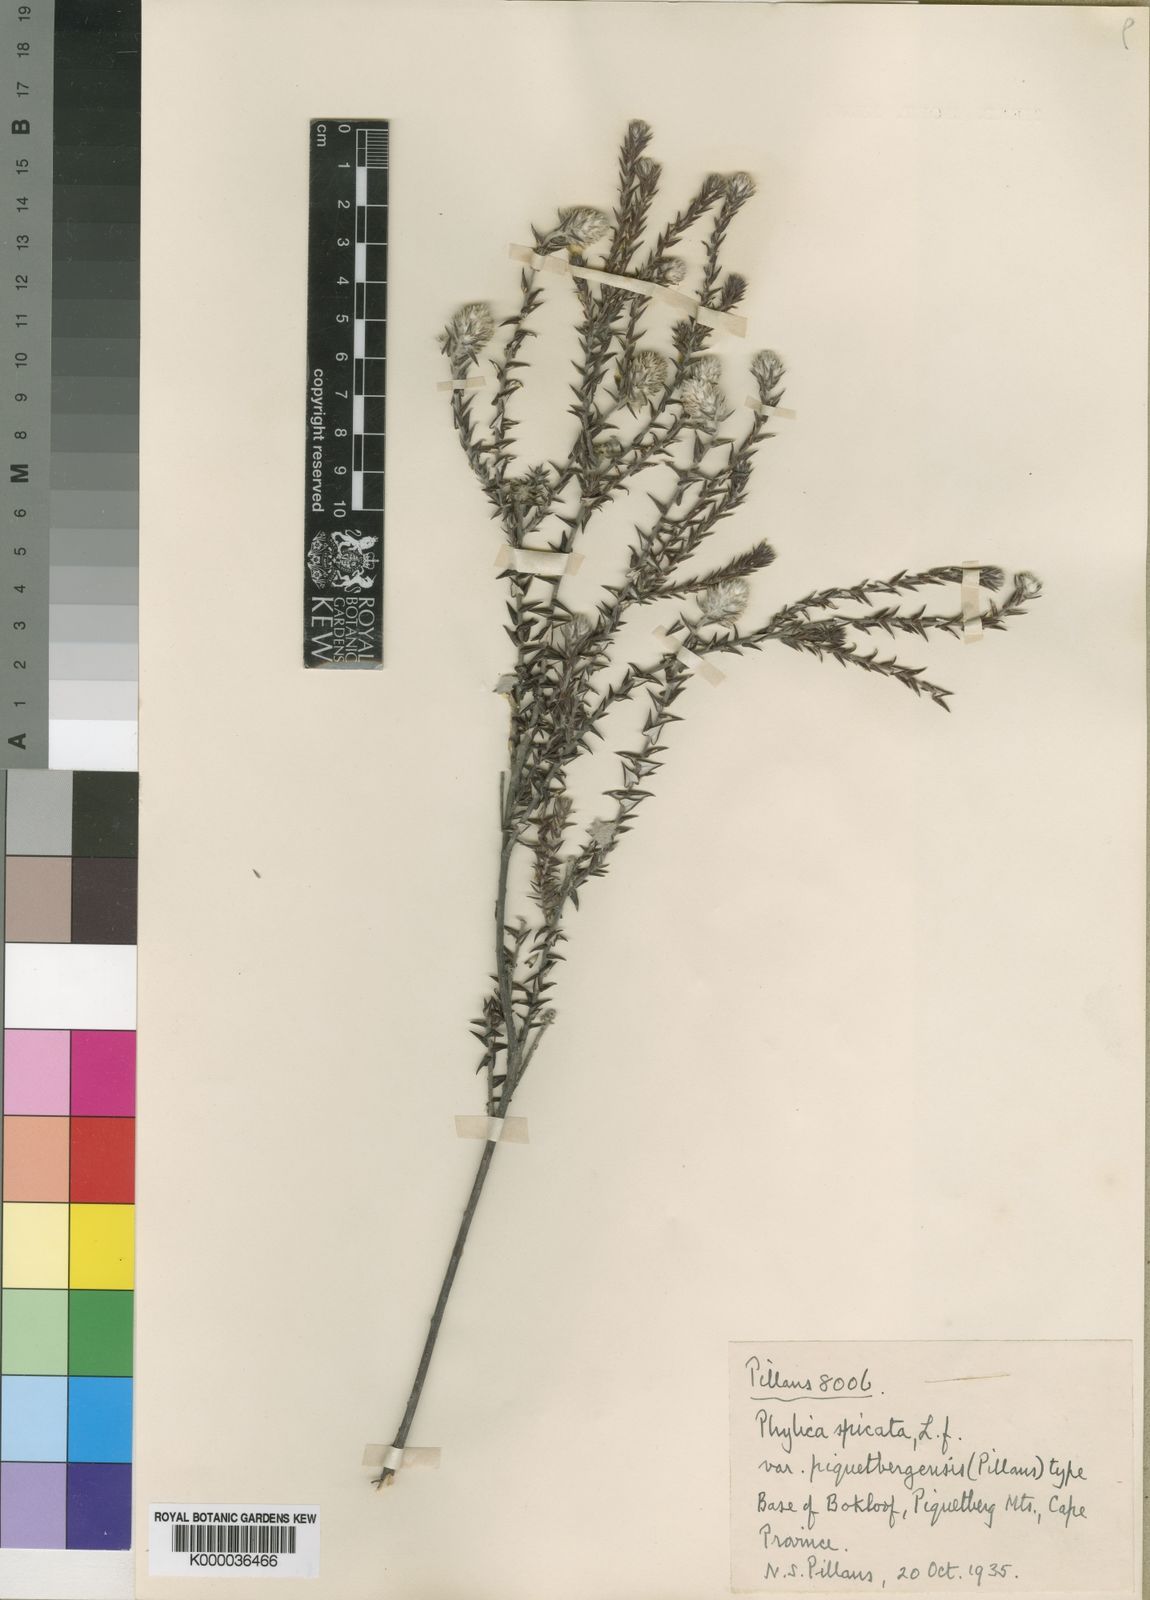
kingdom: Plantae
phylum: Tracheophyta
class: Magnoliopsida
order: Rosales
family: Rhamnaceae
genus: Phylica
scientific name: Phylica spicata
